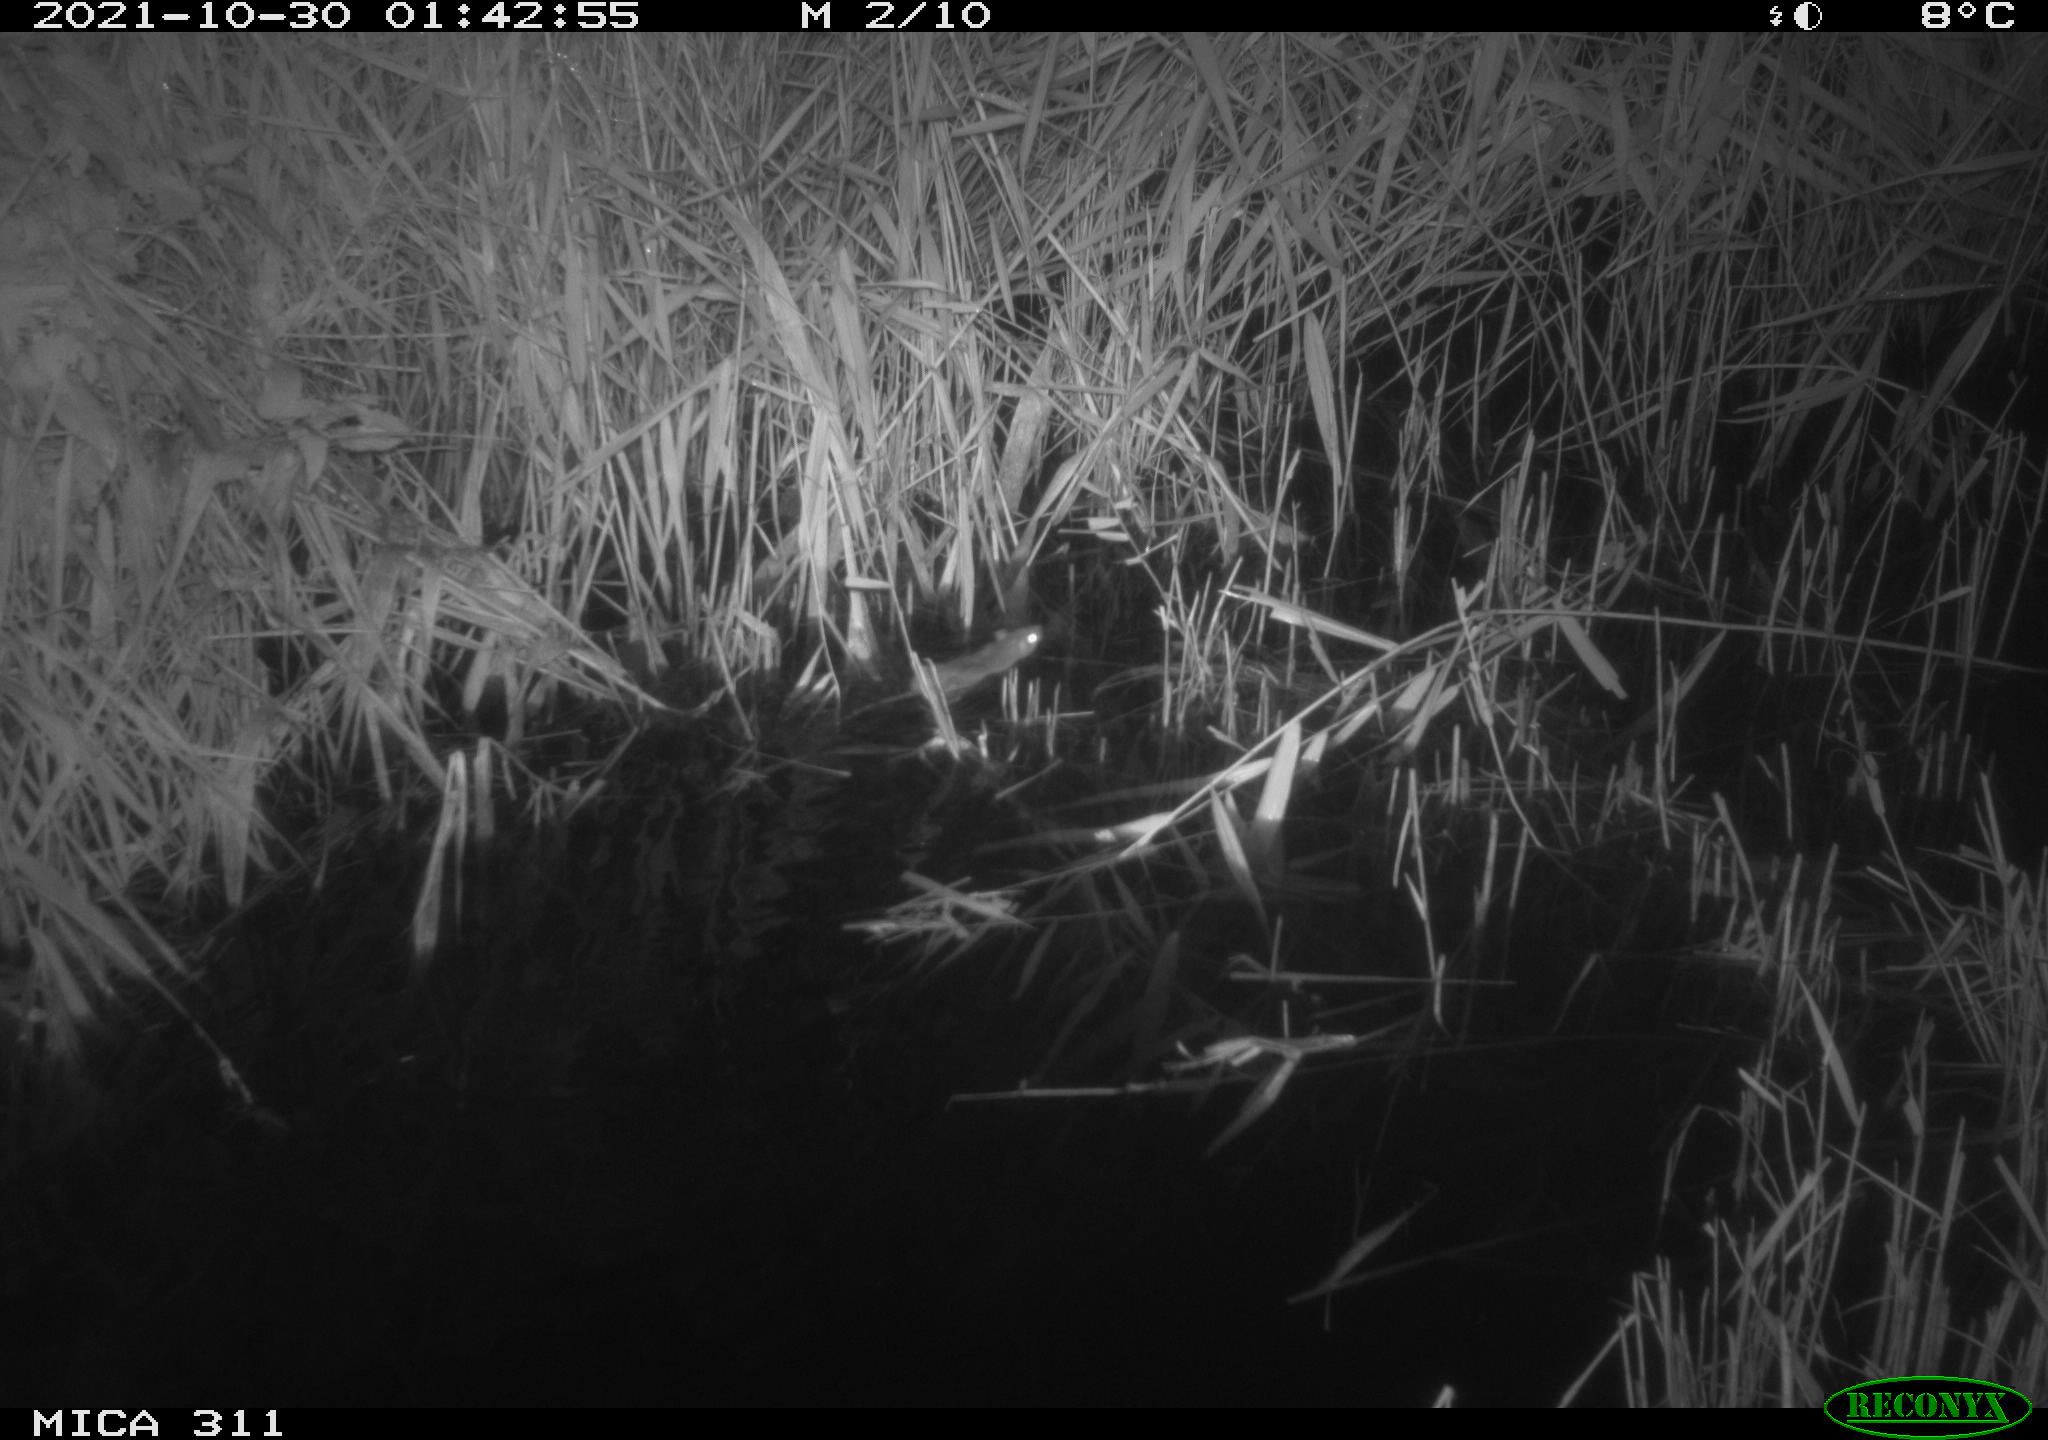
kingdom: Animalia
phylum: Chordata
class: Mammalia
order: Rodentia
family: Muridae
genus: Rattus
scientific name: Rattus norvegicus
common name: Brown rat
